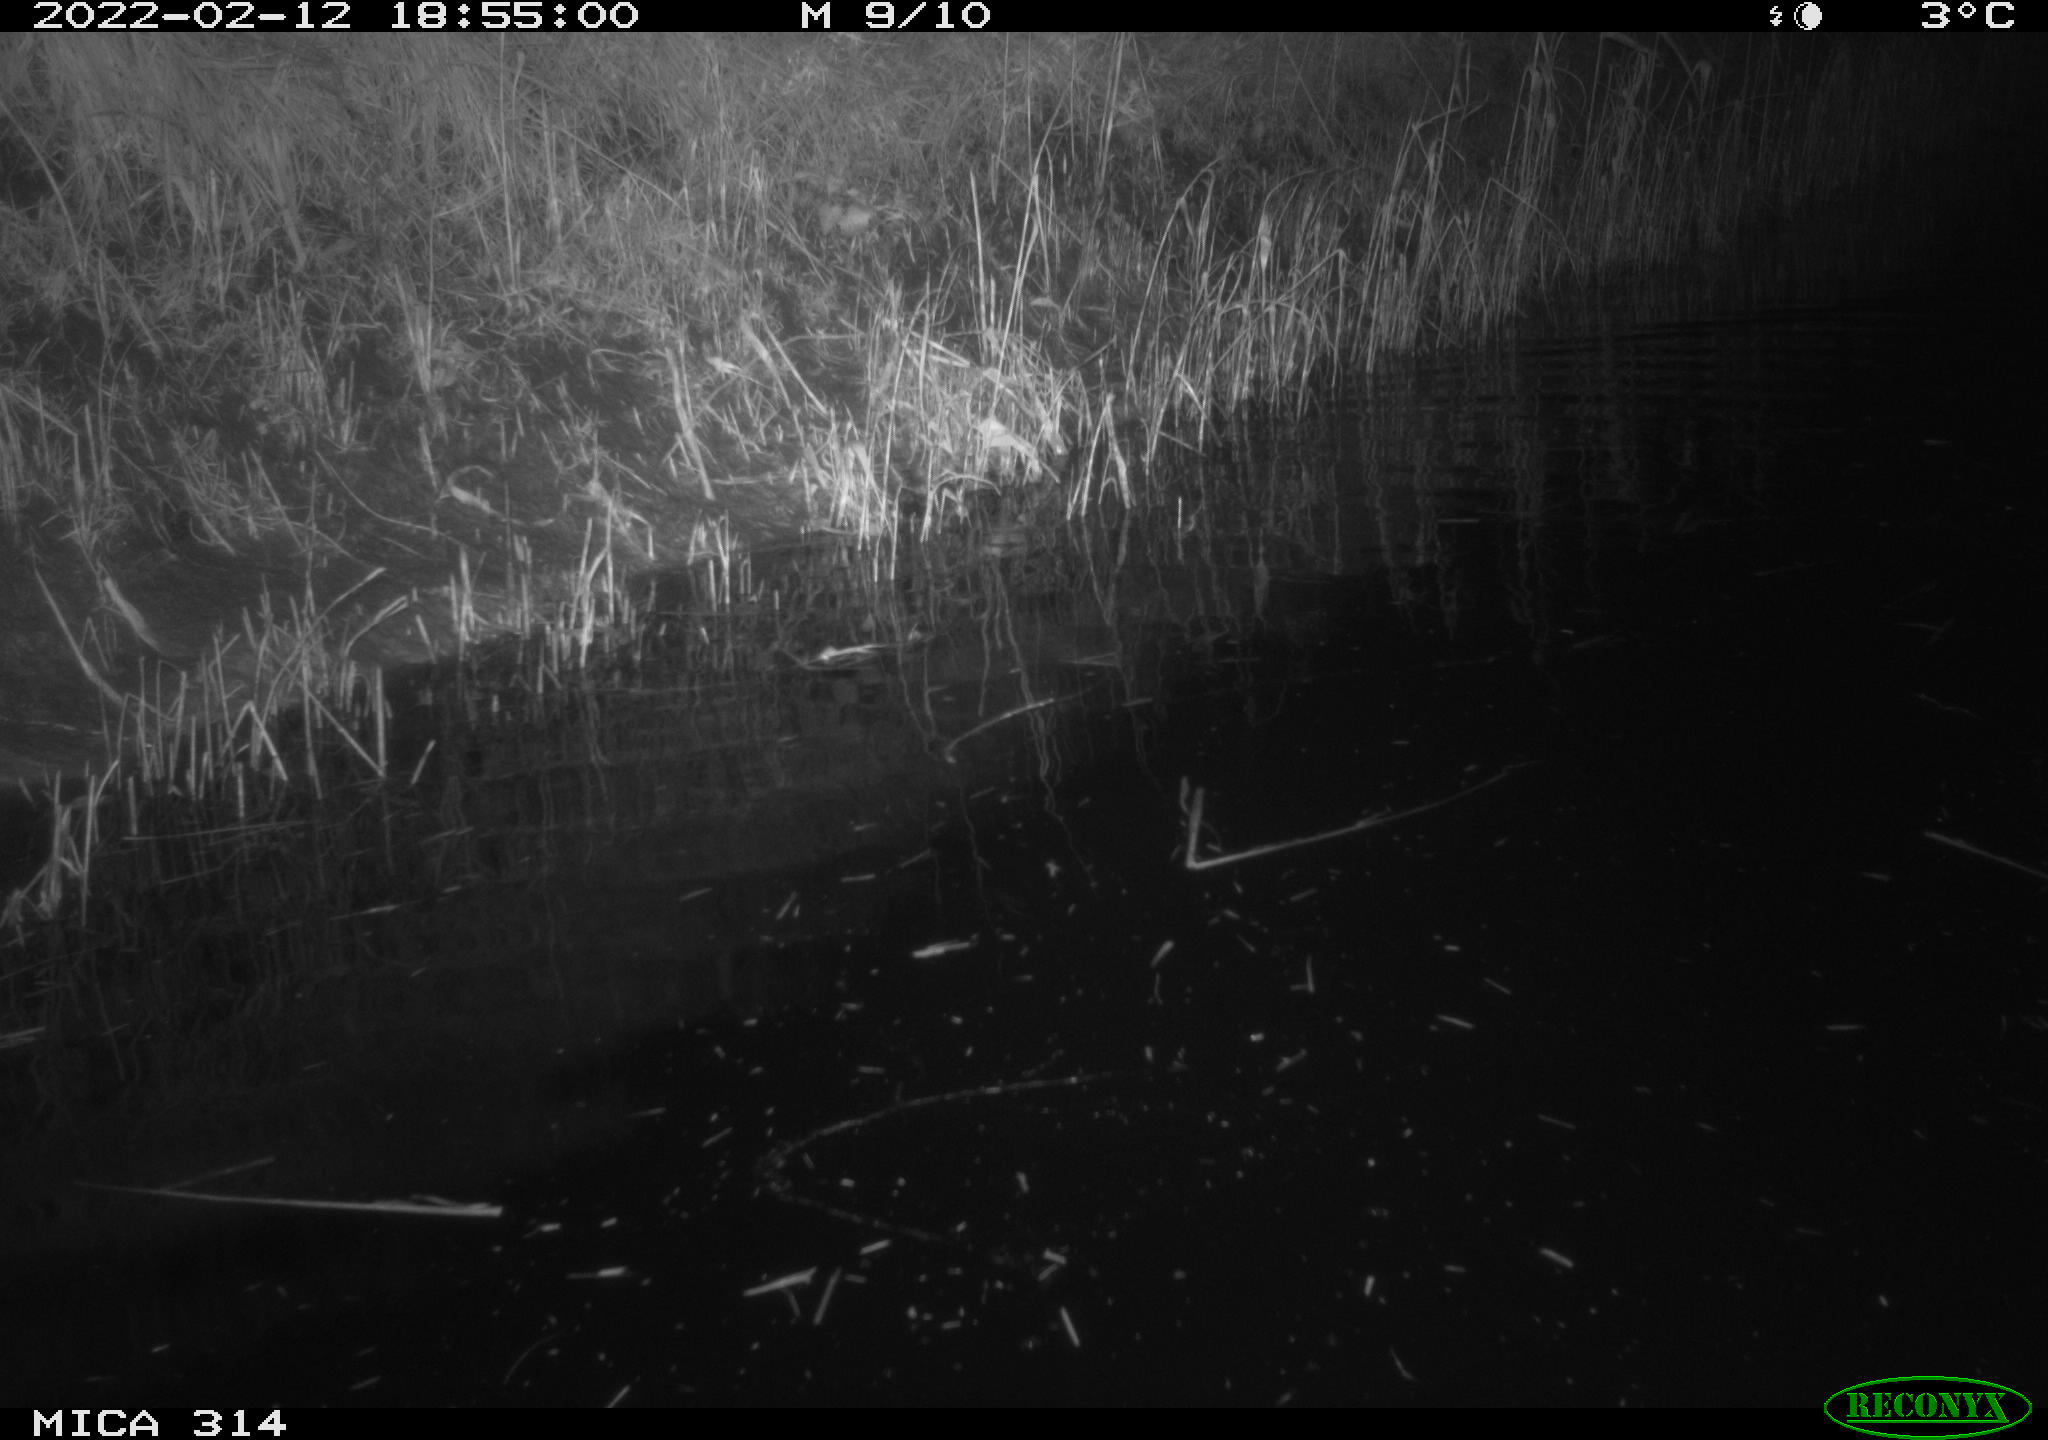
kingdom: Animalia
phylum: Chordata
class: Aves
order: Gruiformes
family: Rallidae
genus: Gallinula
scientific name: Gallinula chloropus
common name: Common moorhen
